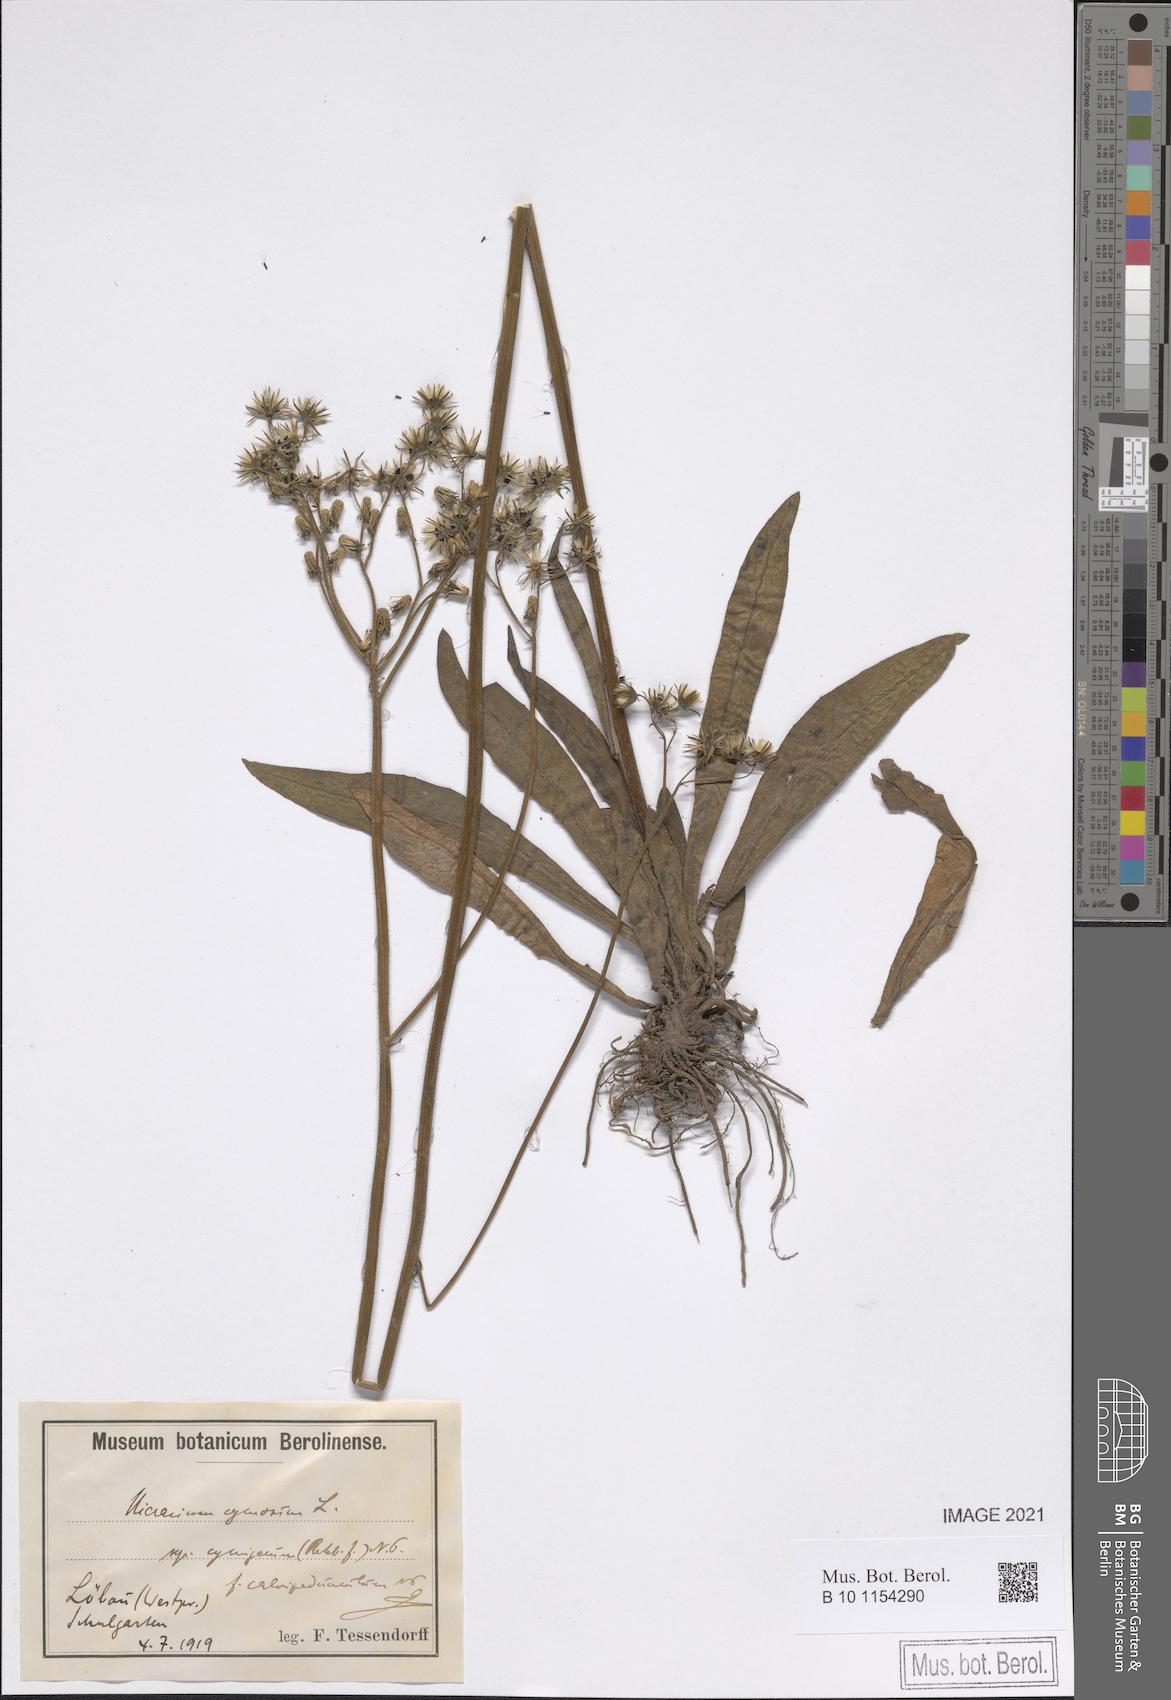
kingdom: Plantae
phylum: Tracheophyta
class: Magnoliopsida
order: Asterales
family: Asteraceae
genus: Pilosella
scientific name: Pilosella cymosa
